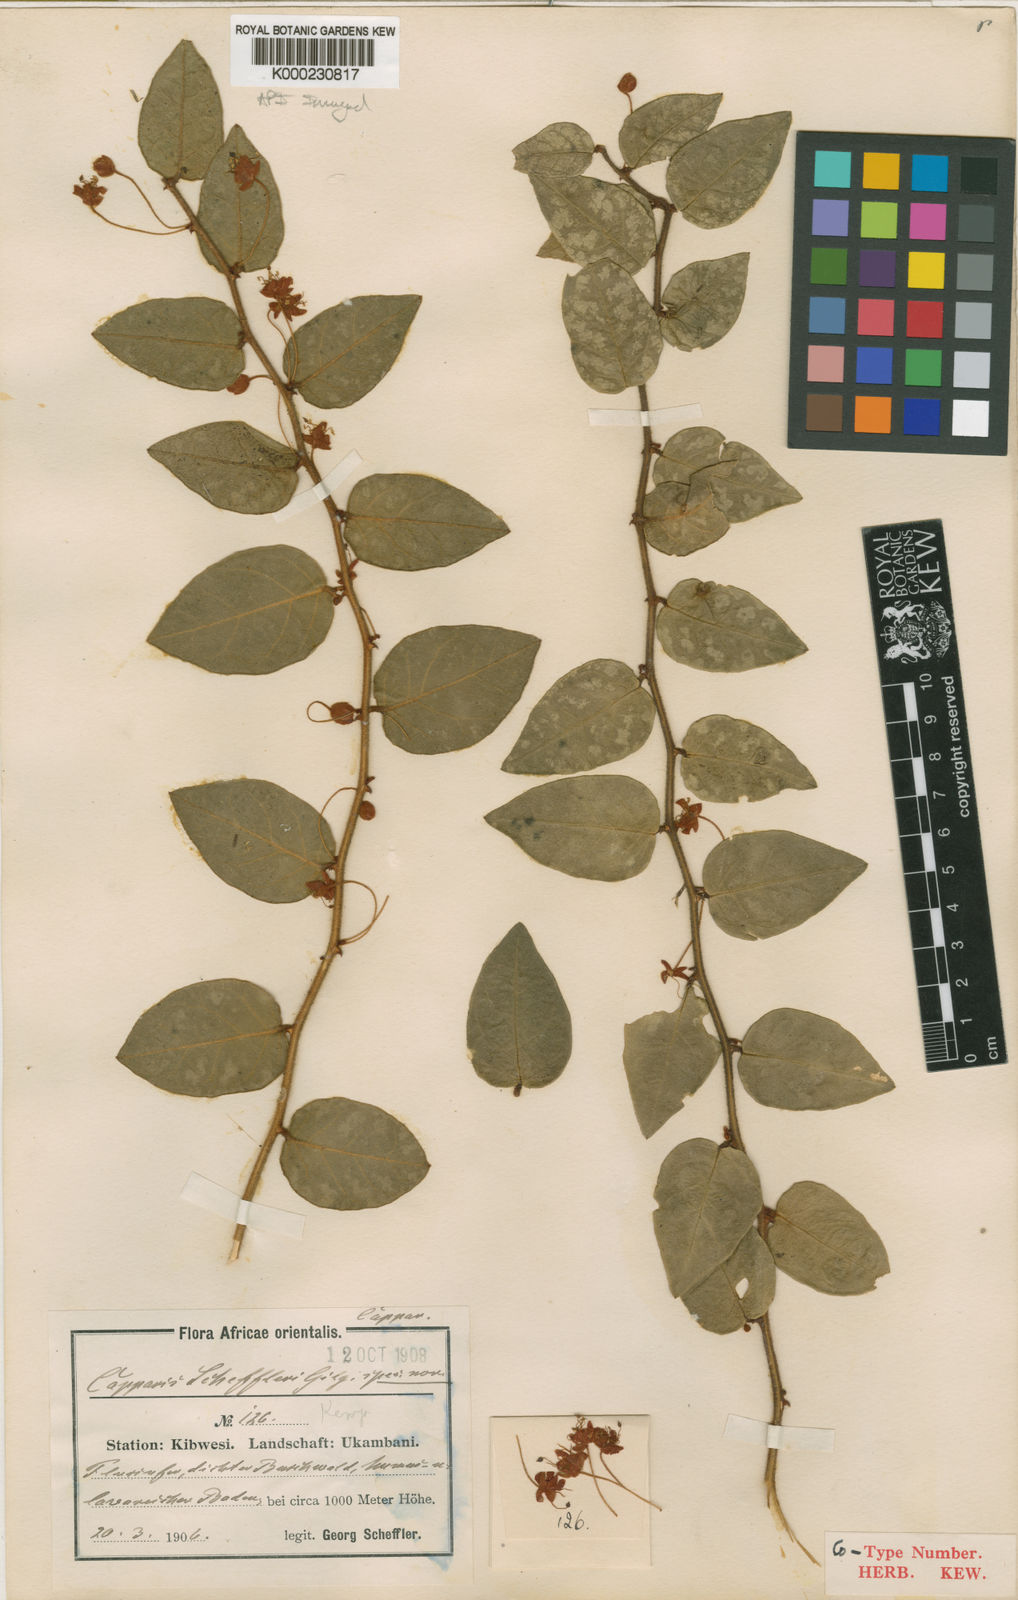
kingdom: Plantae
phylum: Tracheophyta
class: Magnoliopsida
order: Brassicales
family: Capparaceae
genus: Capparis
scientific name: Capparis fascicularis
